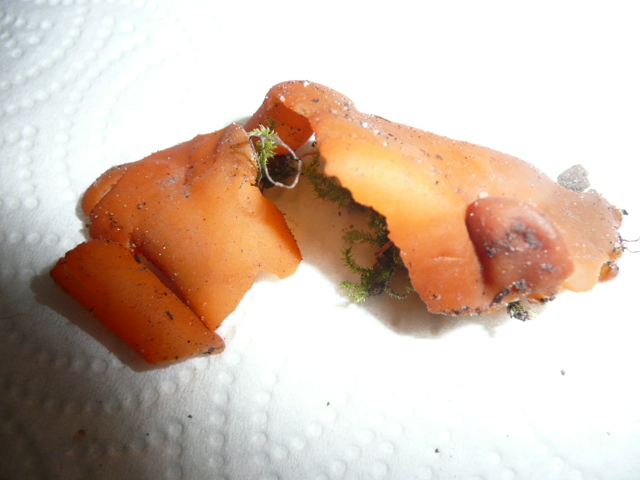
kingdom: Fungi
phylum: Ascomycota
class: Pezizomycetes
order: Pezizales
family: Pyronemataceae
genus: Aleuria
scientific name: Aleuria aurantia
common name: almindelig orangebæger
